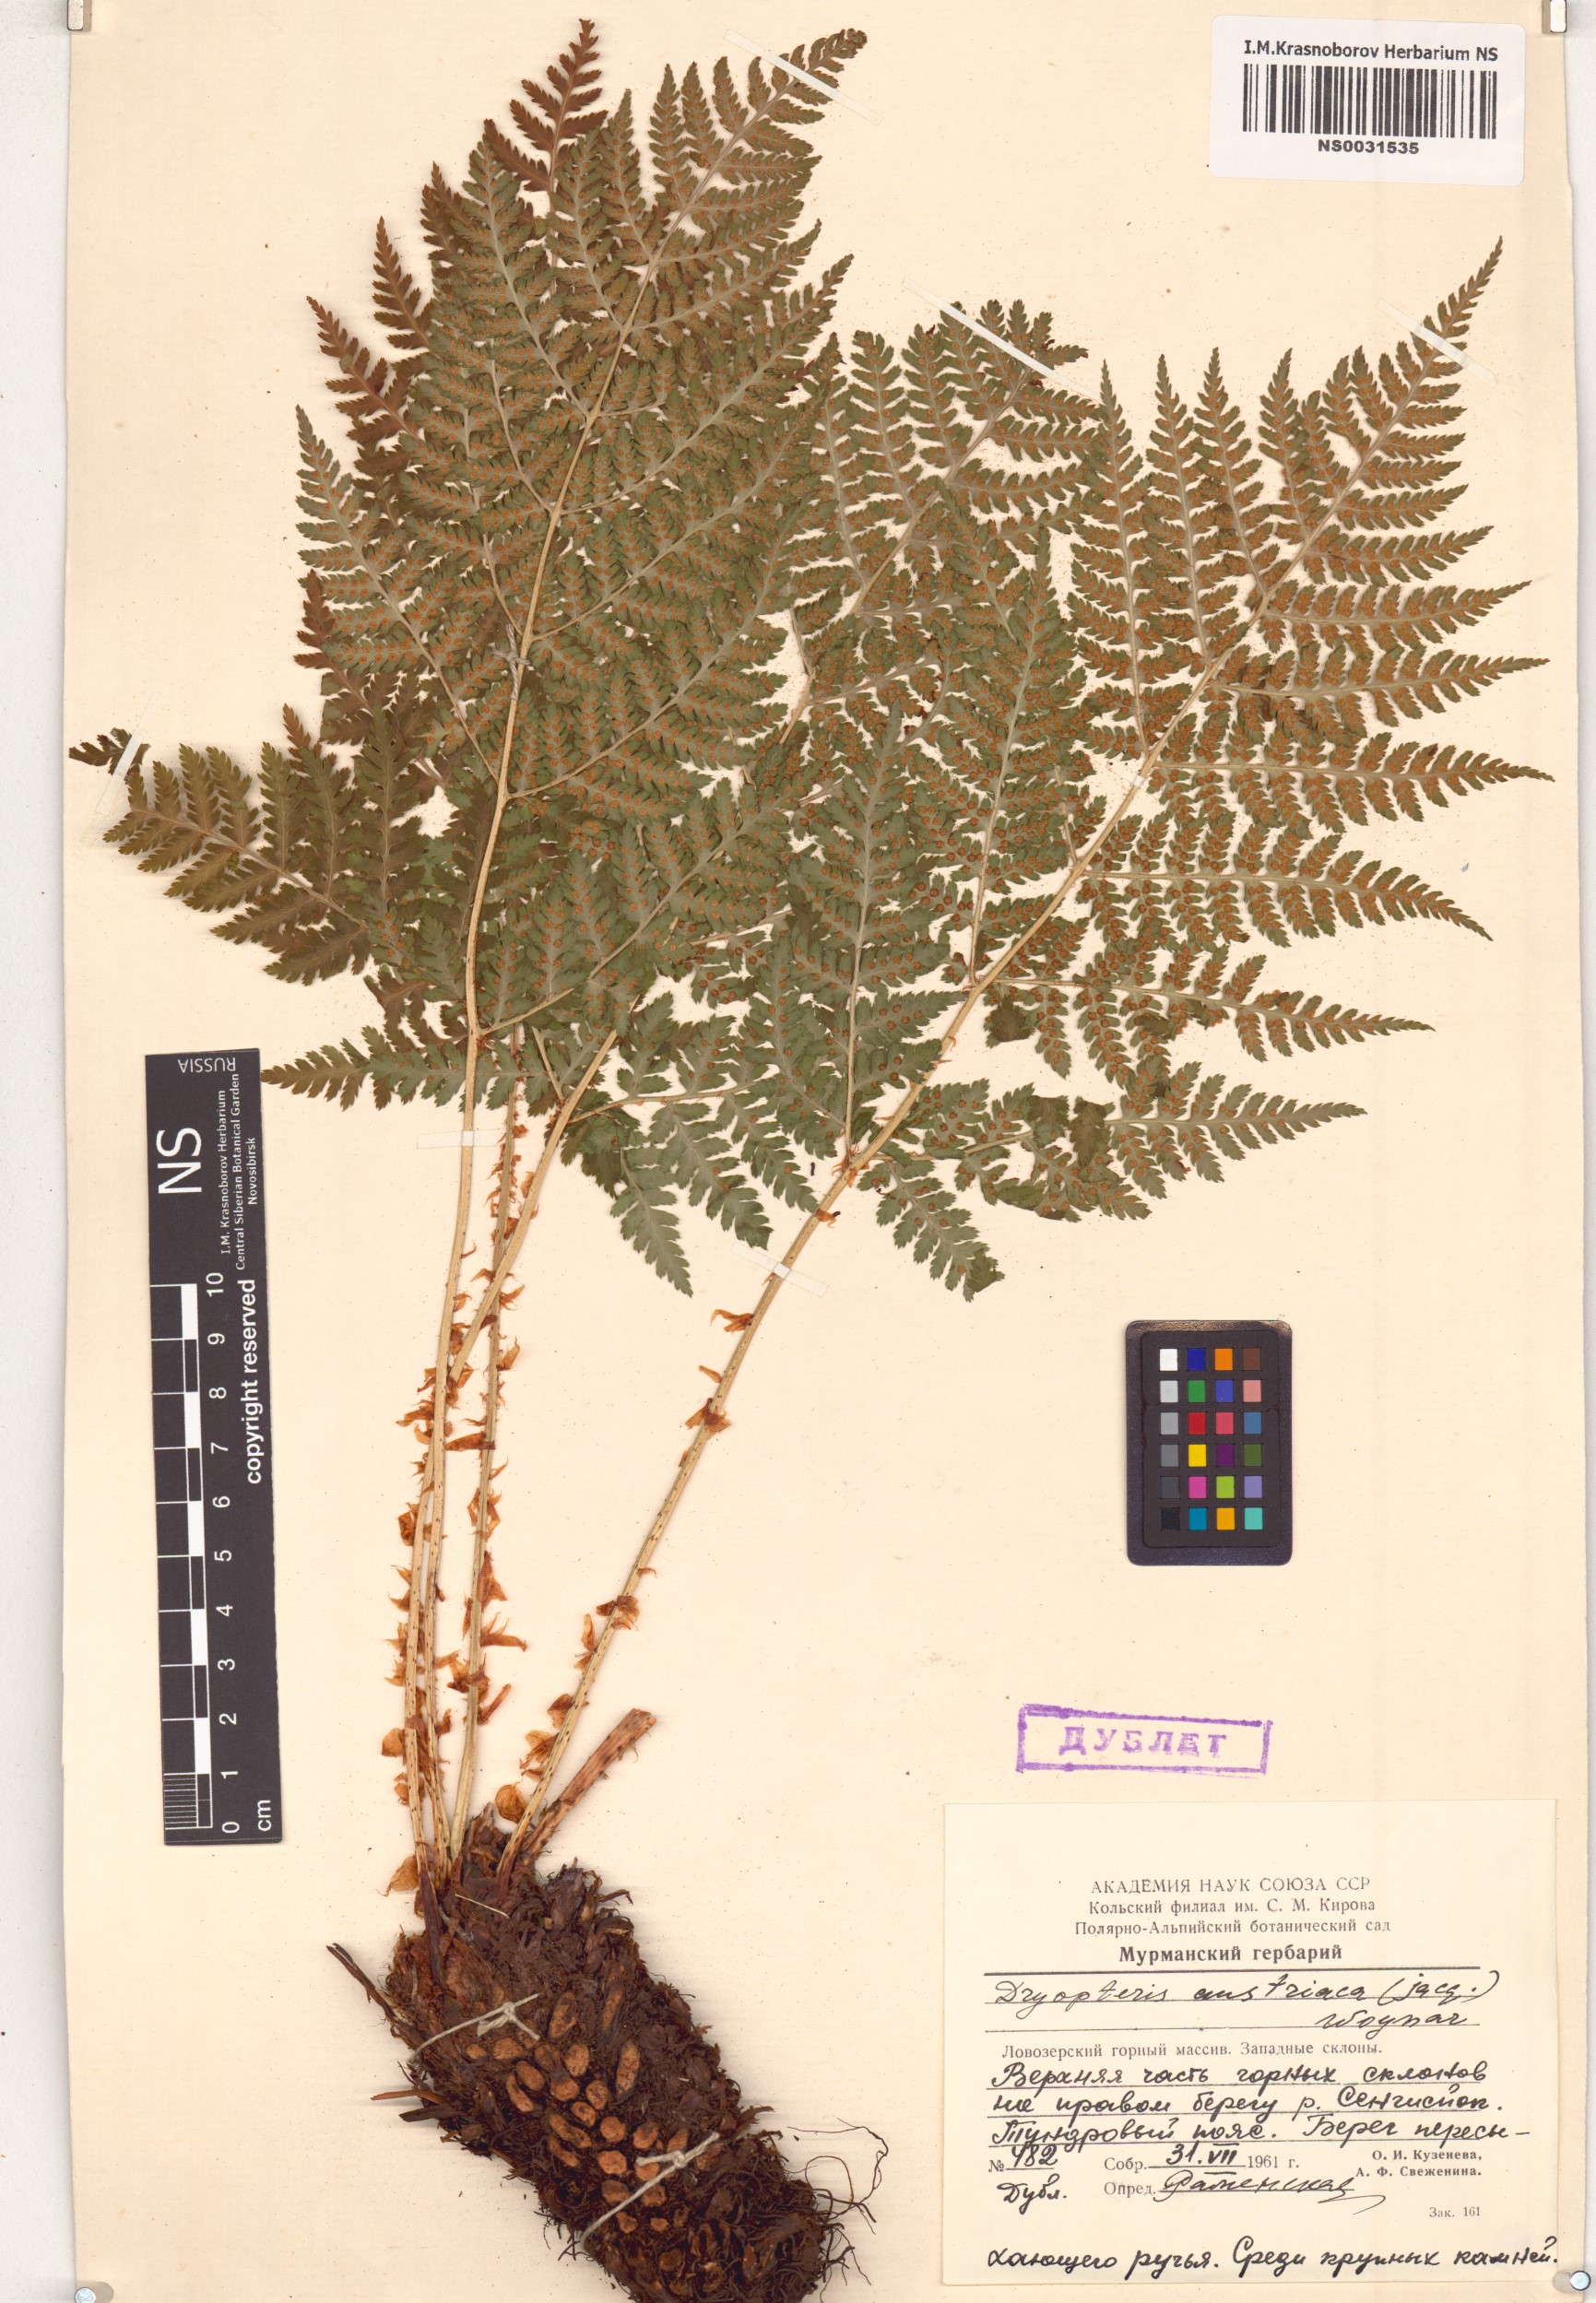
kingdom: Plantae
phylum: Tracheophyta
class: Polypodiopsida
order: Polypodiales
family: Dryopteridaceae
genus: Dryopteris
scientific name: Dryopteris dilatata
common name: Broad buckler-fern
